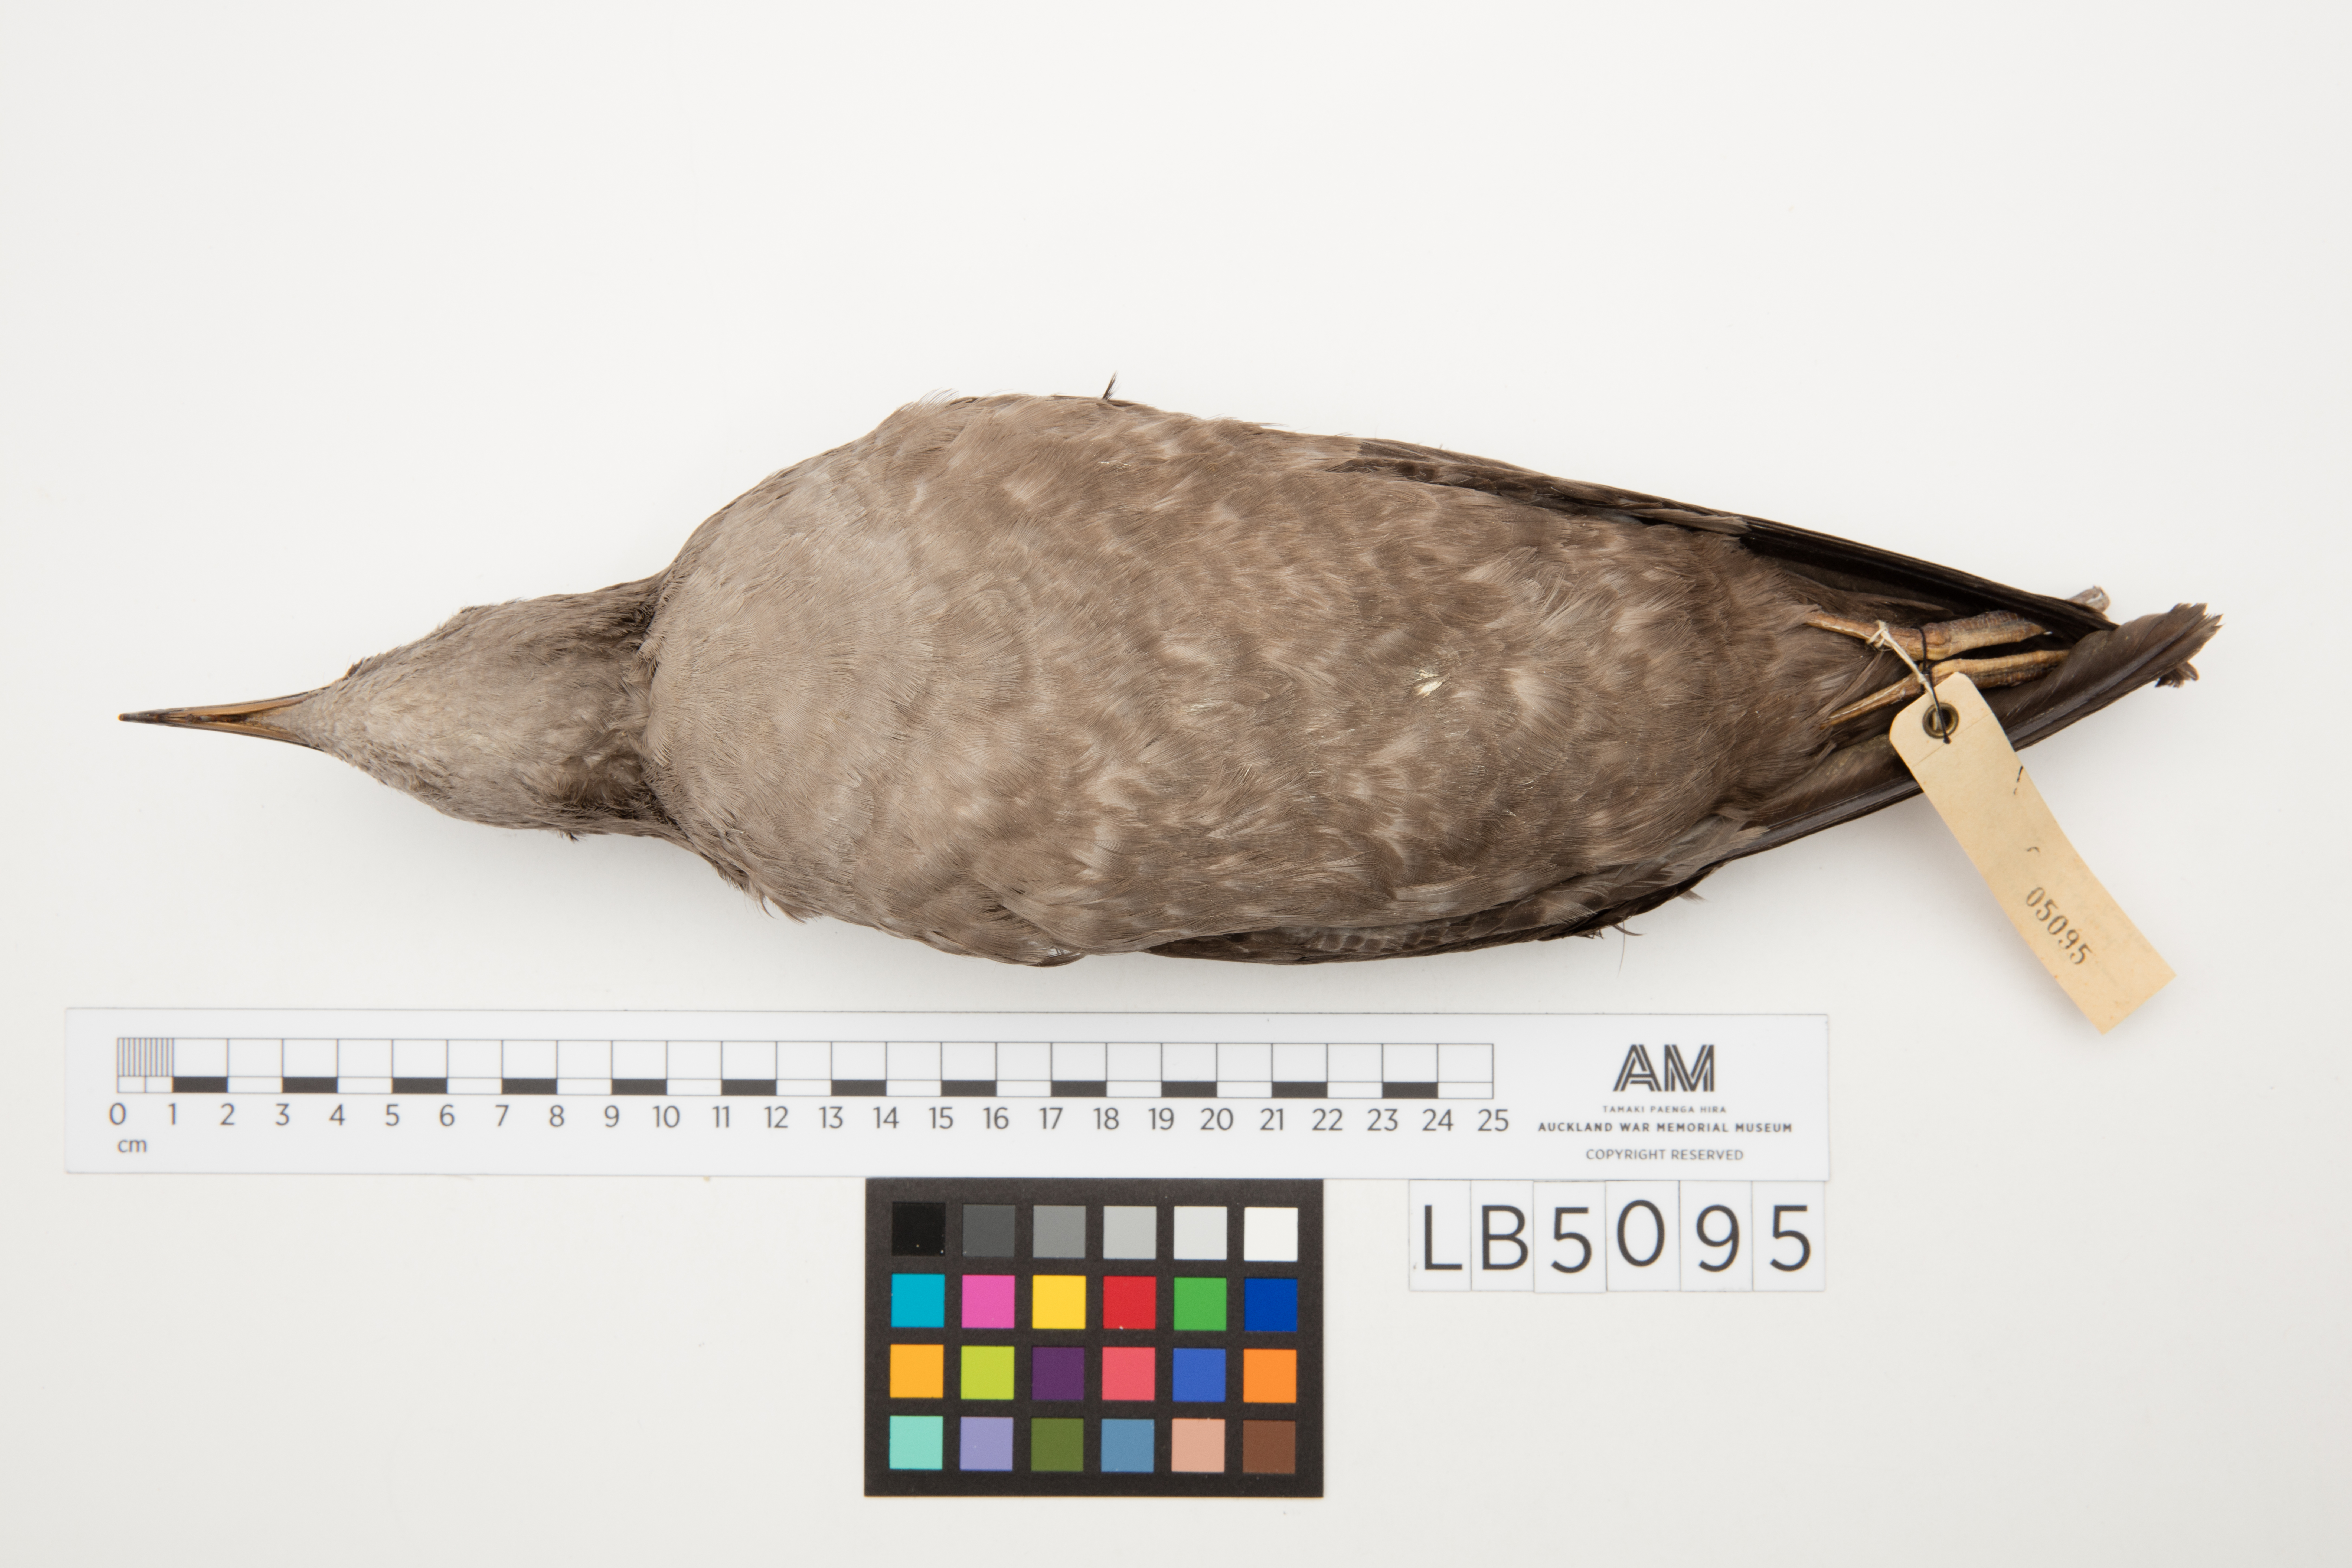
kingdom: Animalia
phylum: Chordata
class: Aves
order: Procellariiformes
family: Procellariidae
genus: Puffinus
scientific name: Puffinus tenuirostris
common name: Short-tailed shearwater
